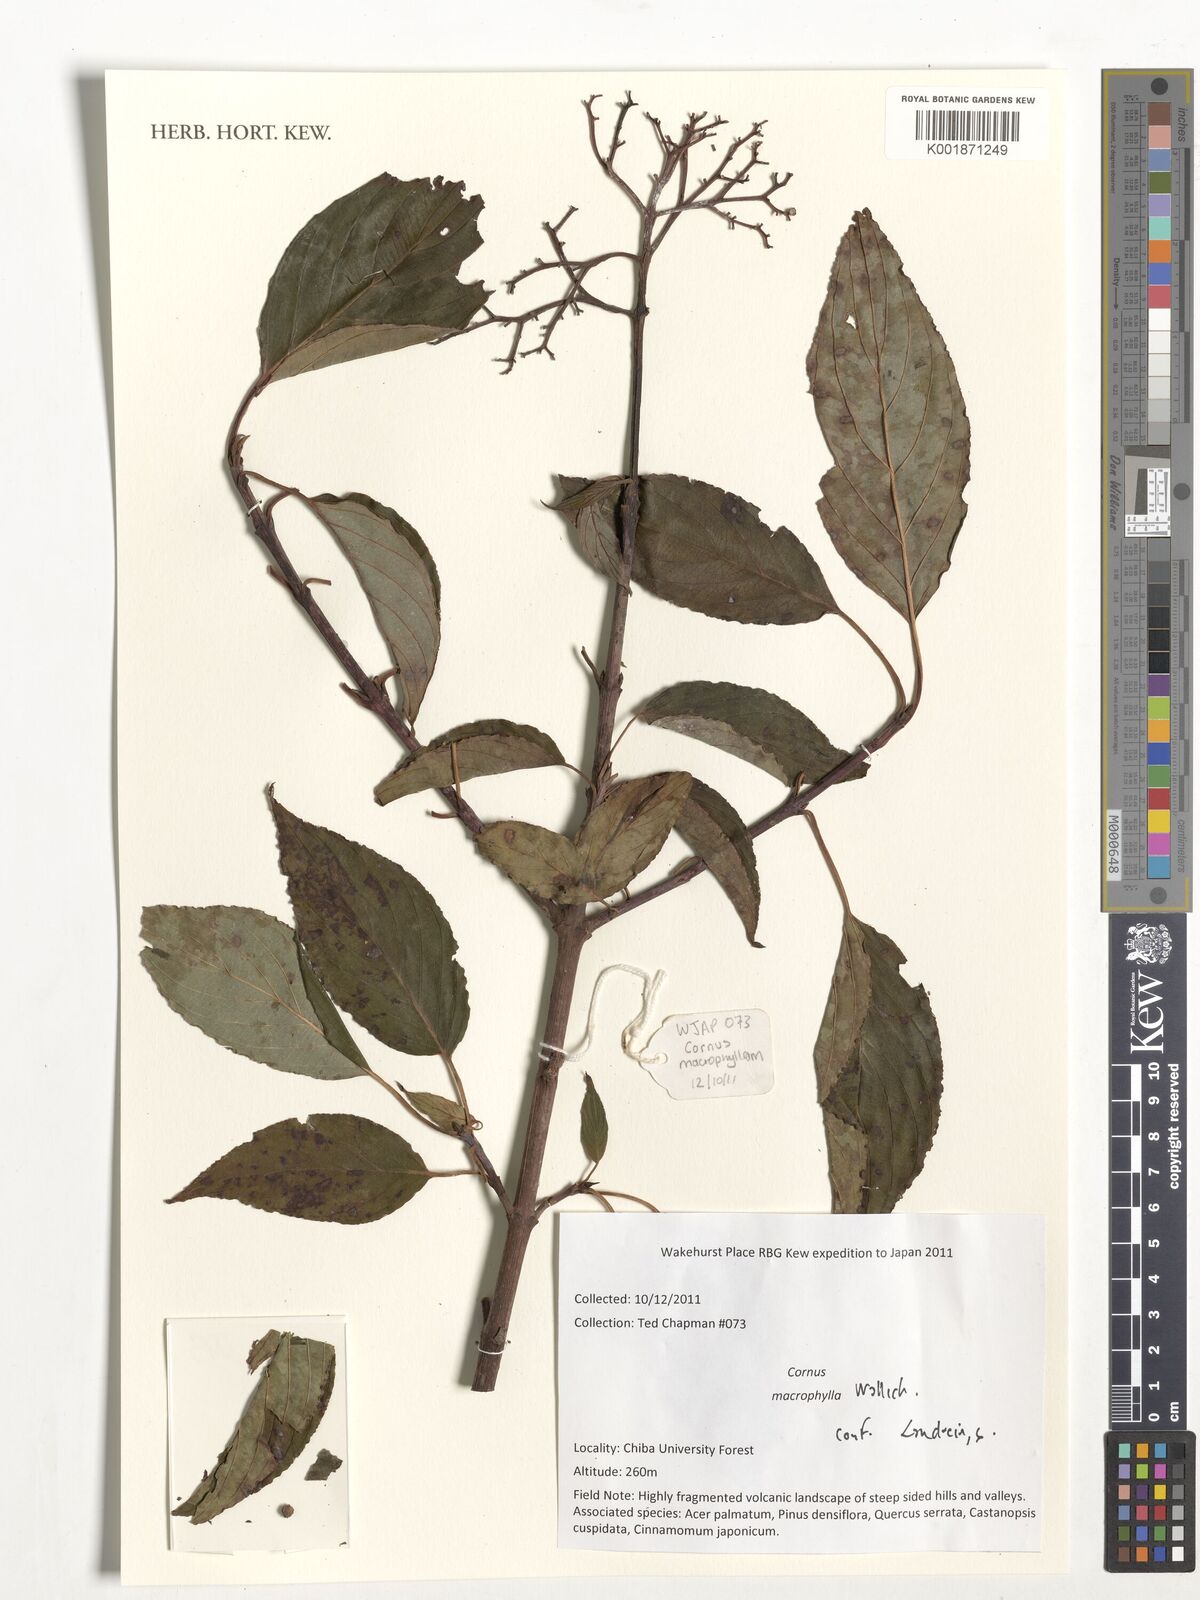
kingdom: Plantae
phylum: Tracheophyta
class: Magnoliopsida
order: Cornales
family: Cornaceae
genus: Cornus
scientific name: Cornus macrophylla
